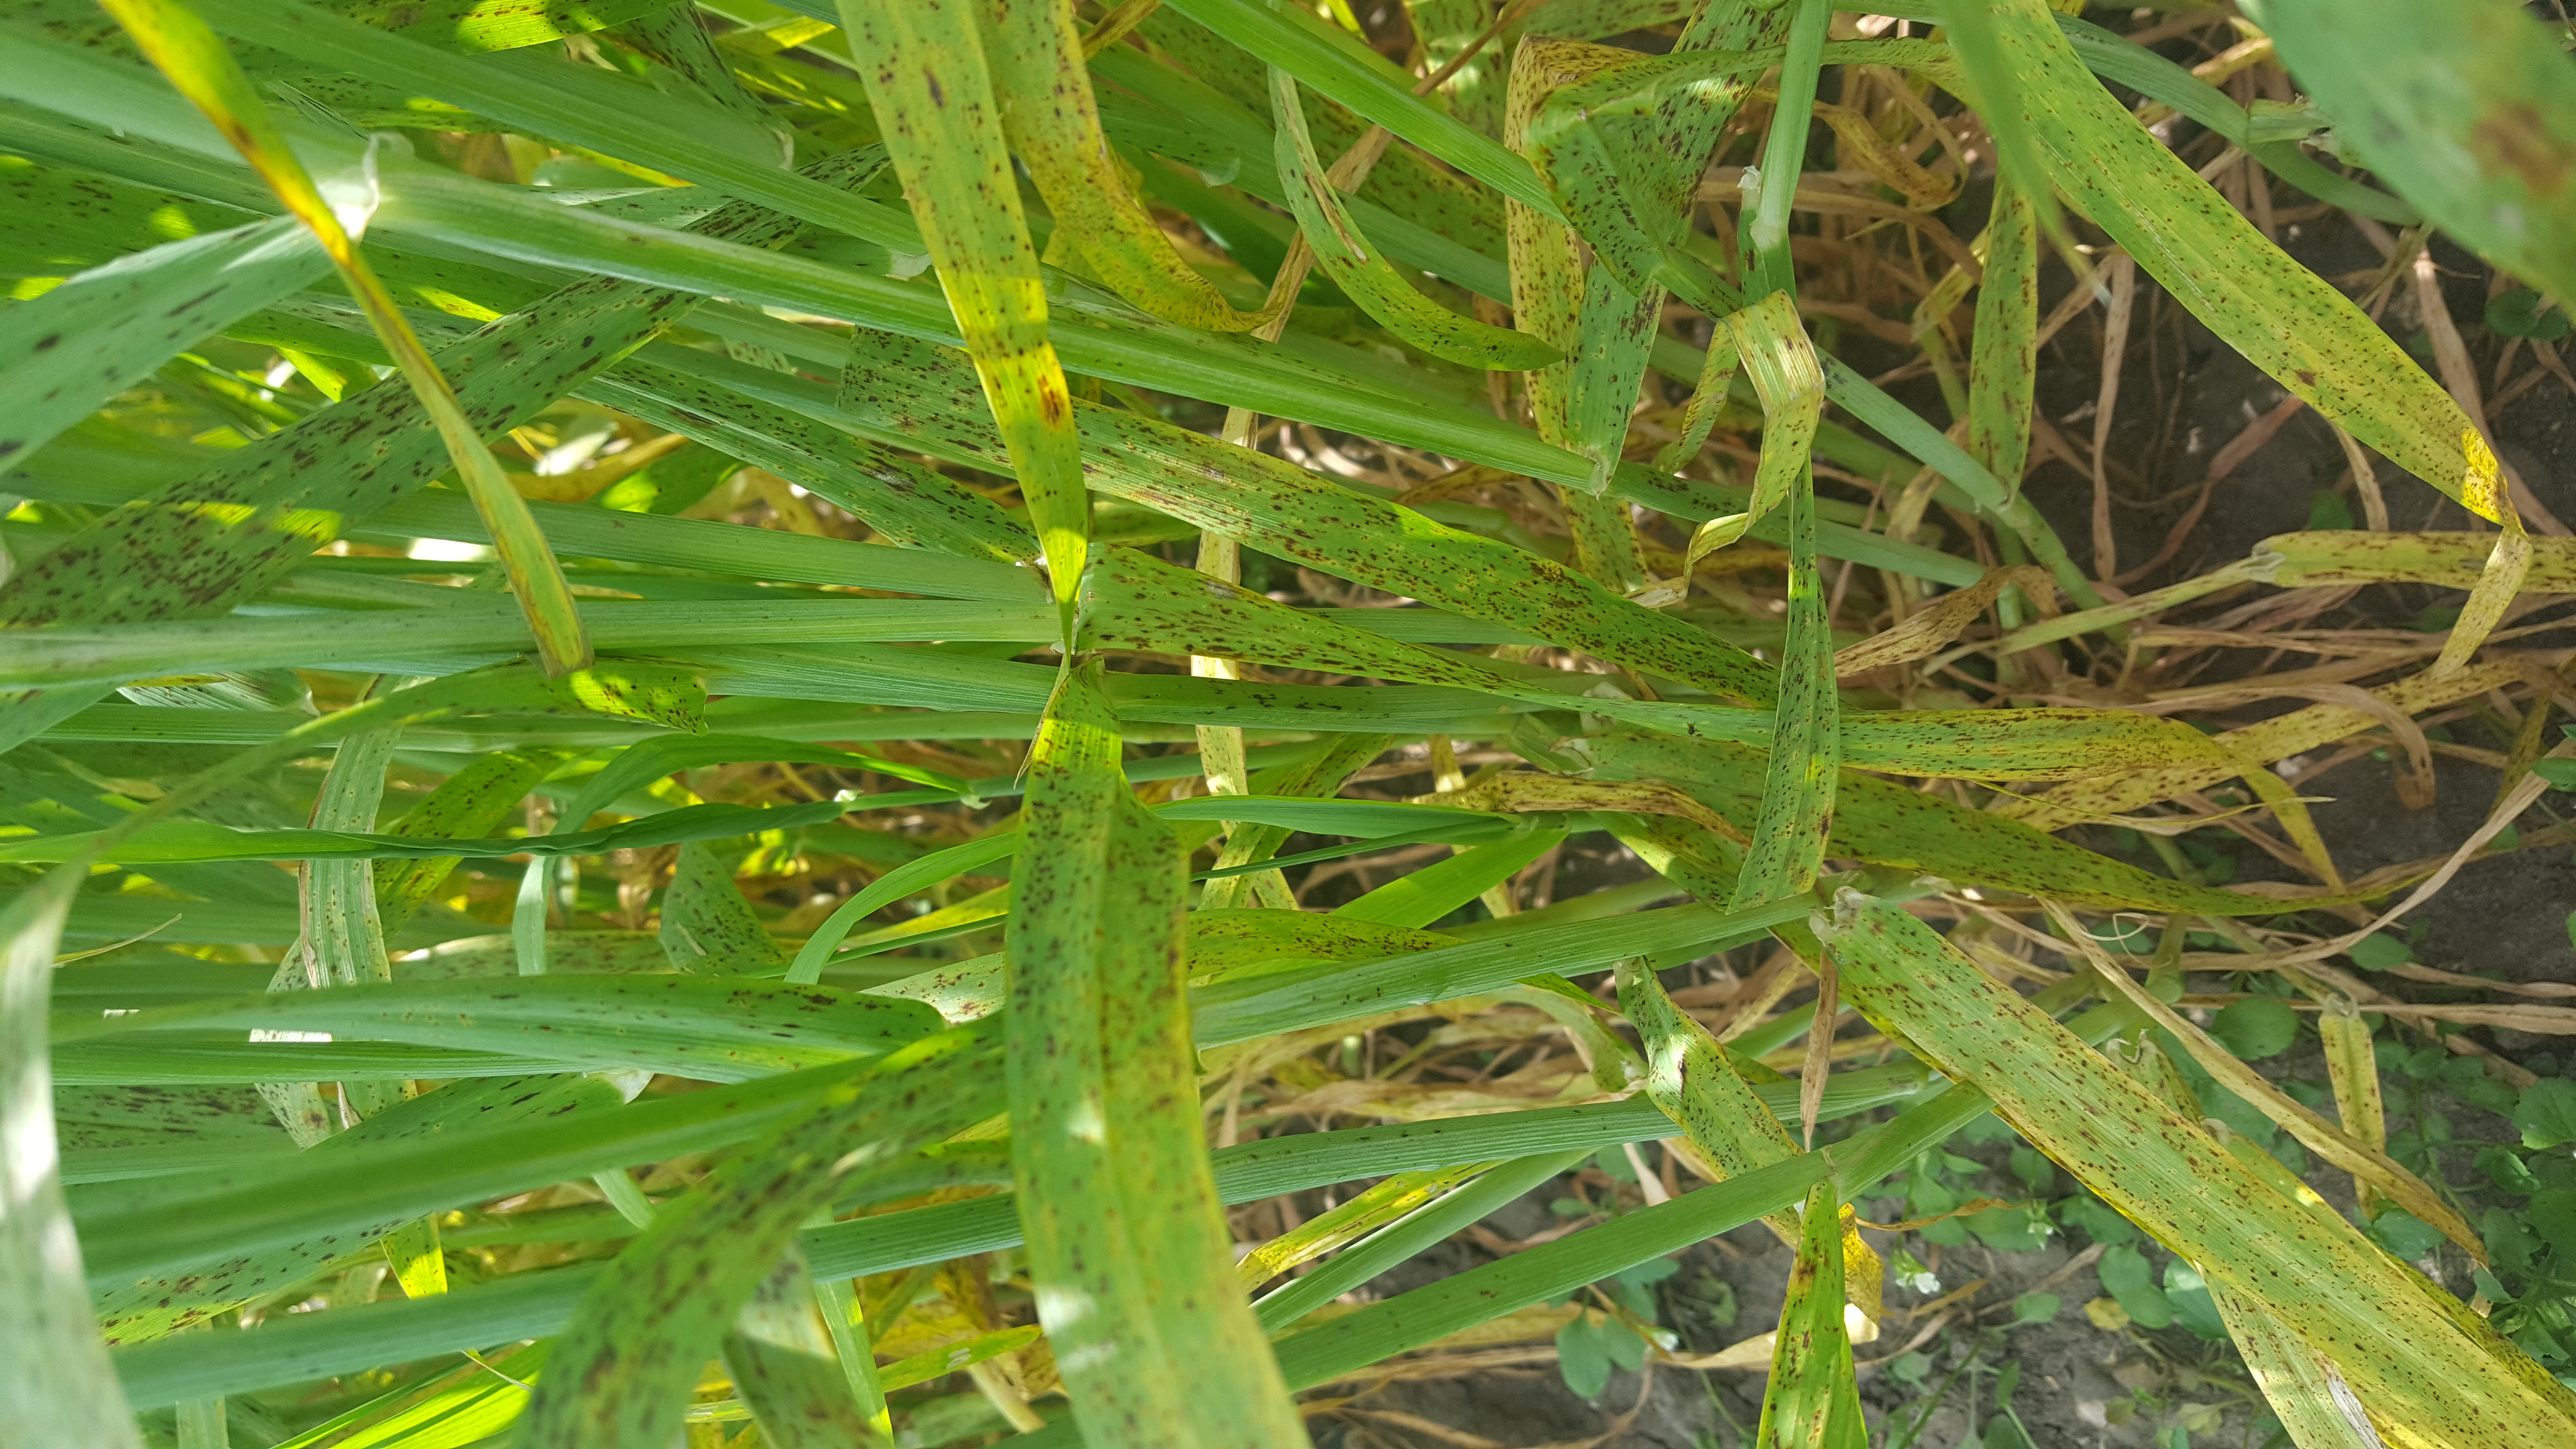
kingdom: Plantae
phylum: Tracheophyta
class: Liliopsida
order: Poales
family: Poaceae
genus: Hordeum
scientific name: Hordeum vulgare
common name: Common barley
